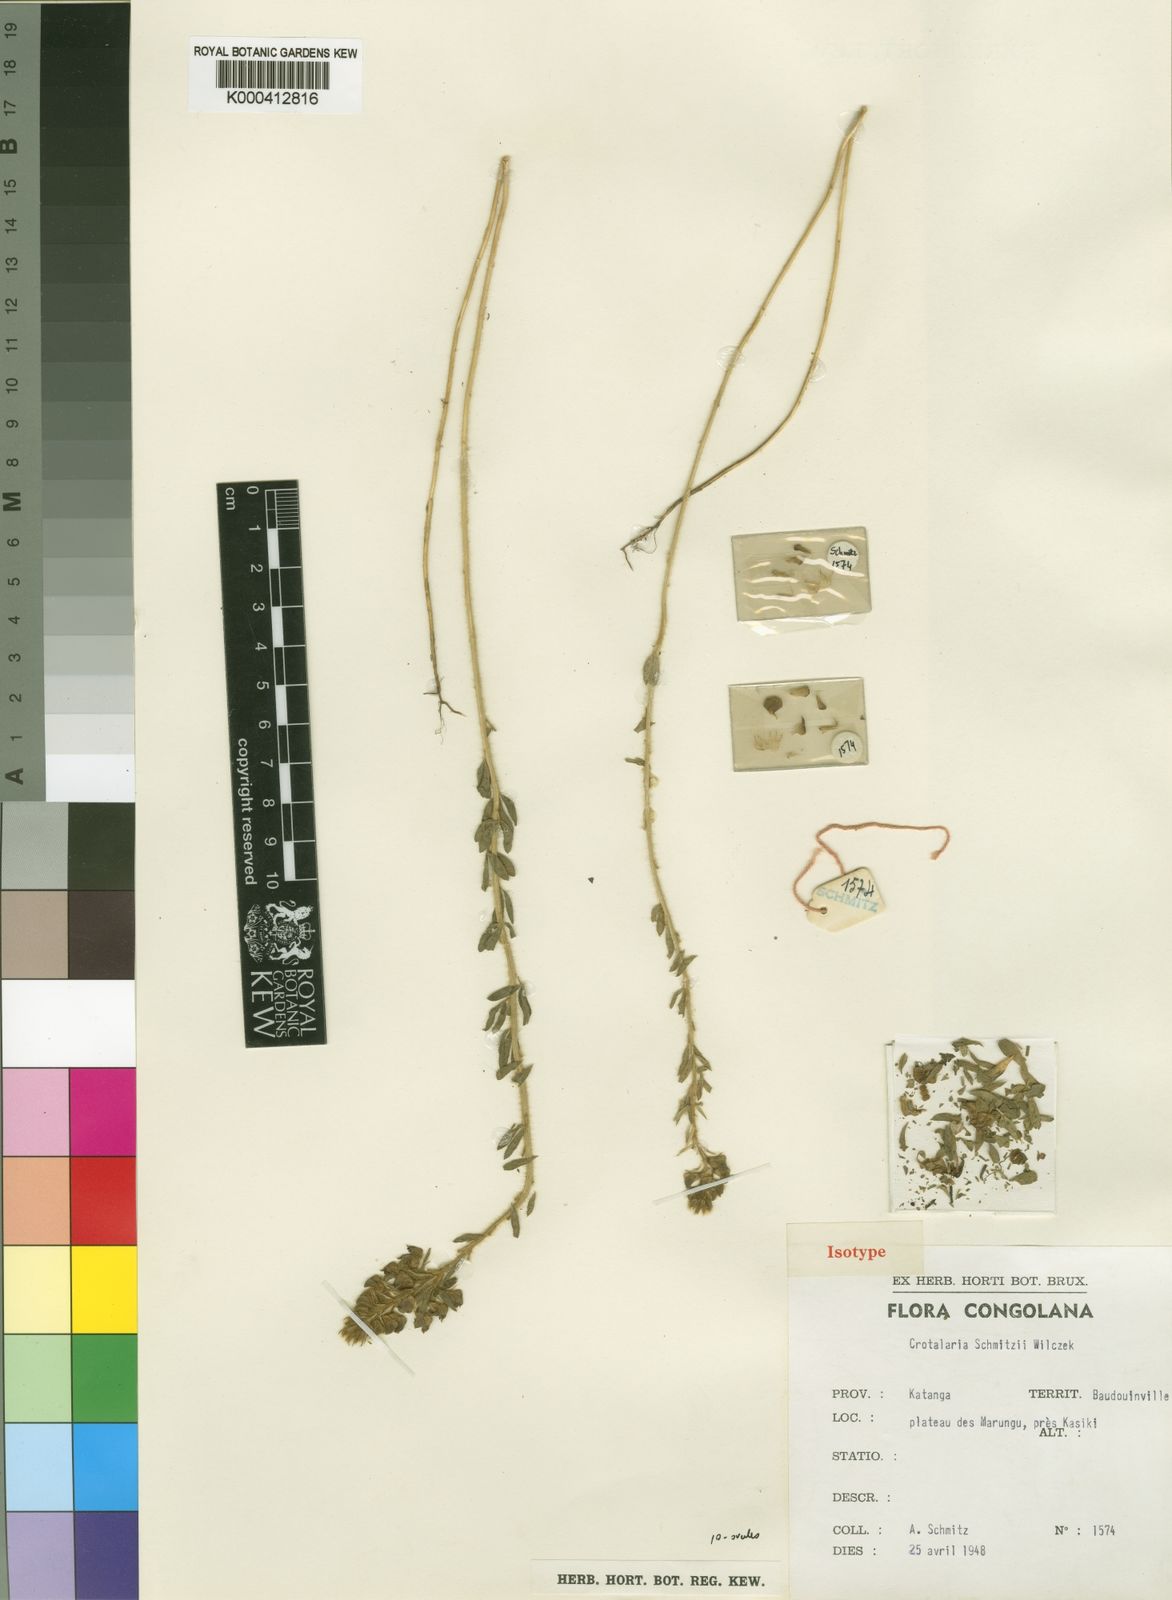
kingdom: Plantae
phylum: Tracheophyta
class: Magnoliopsida
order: Fabales
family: Fabaceae
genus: Crotalaria
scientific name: Crotalaria schmitzii
